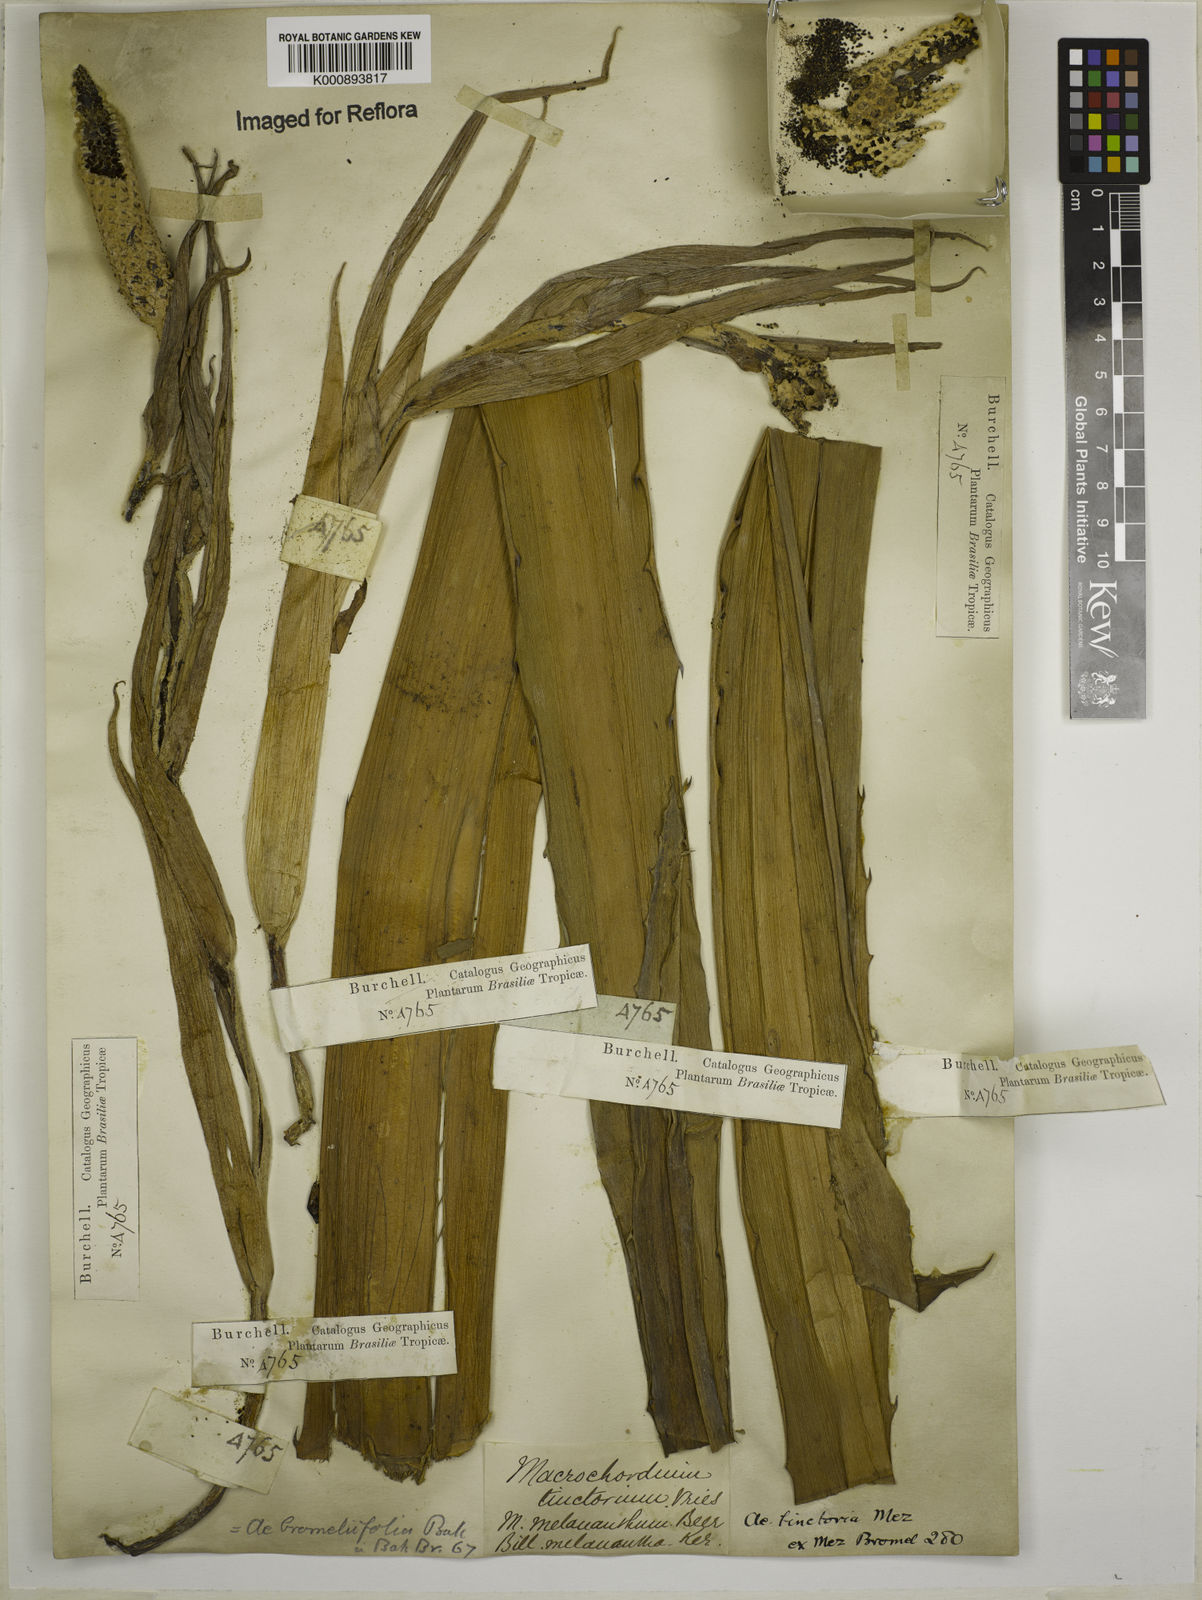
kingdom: Plantae
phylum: Tracheophyta
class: Liliopsida
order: Poales
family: Bromeliaceae
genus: Aechmea
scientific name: Aechmea
